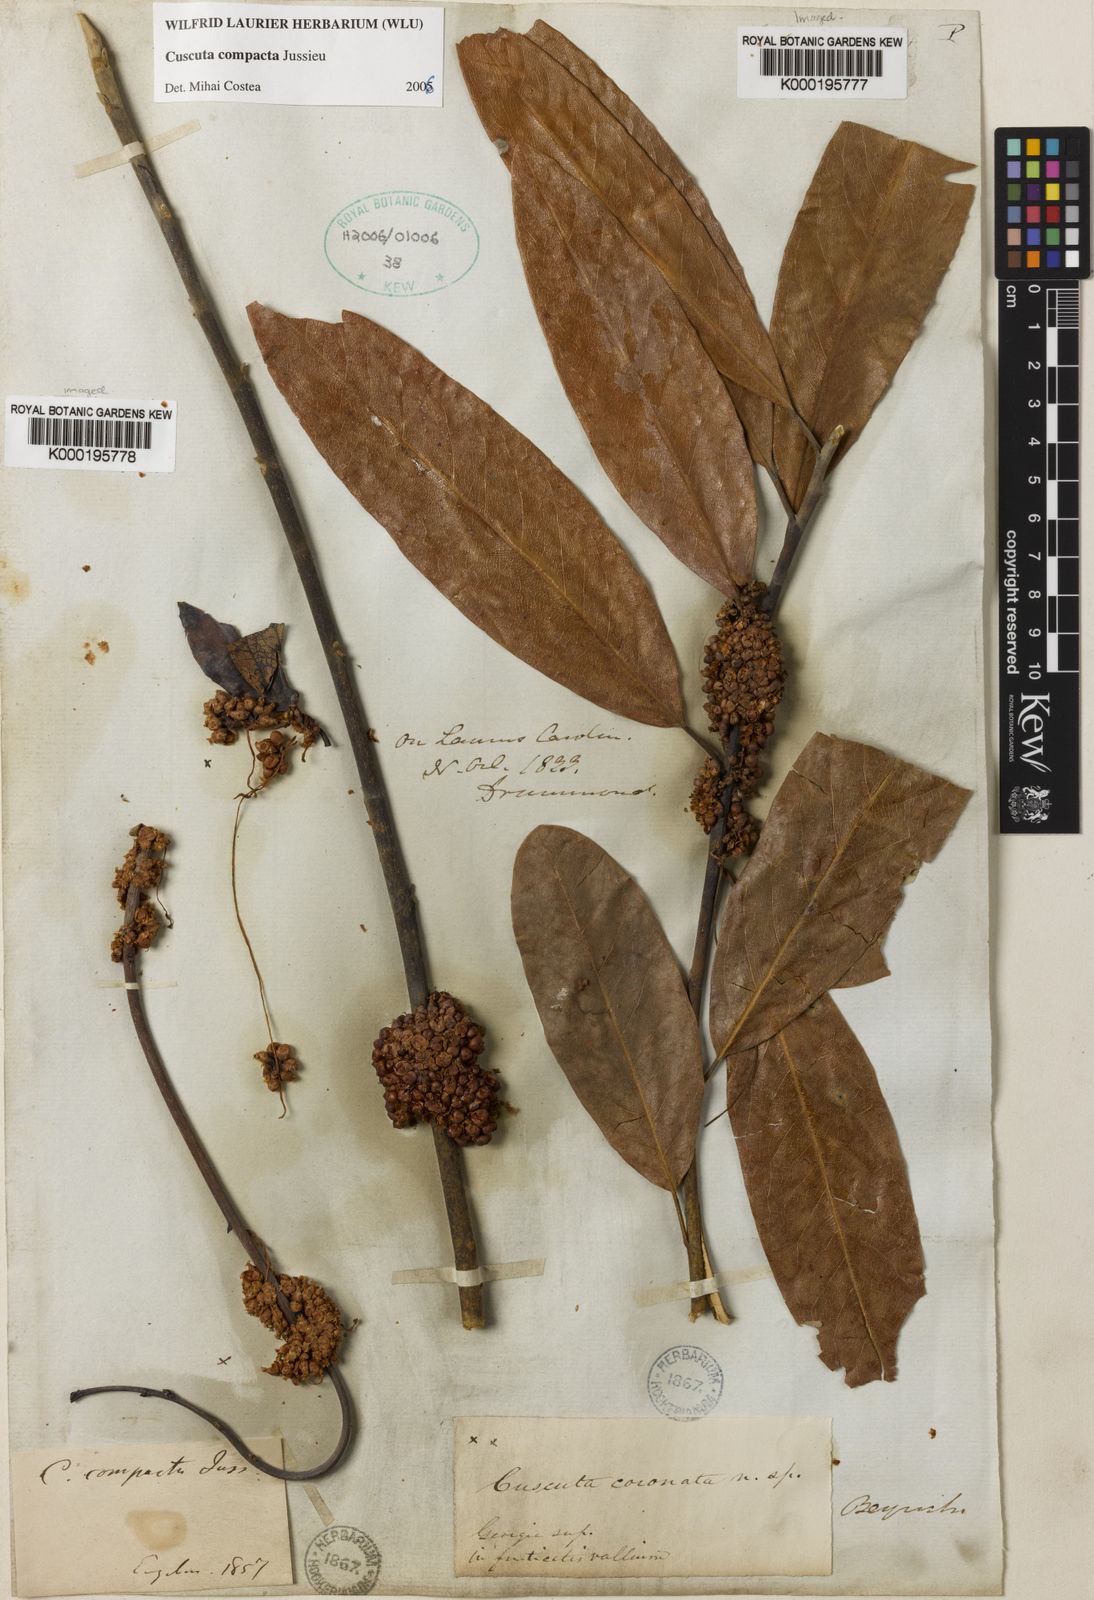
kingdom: Plantae
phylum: Tracheophyta
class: Magnoliopsida
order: Solanales
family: Convolvulaceae
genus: Cuscuta
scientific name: Cuscuta compacta
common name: Compact dodder
